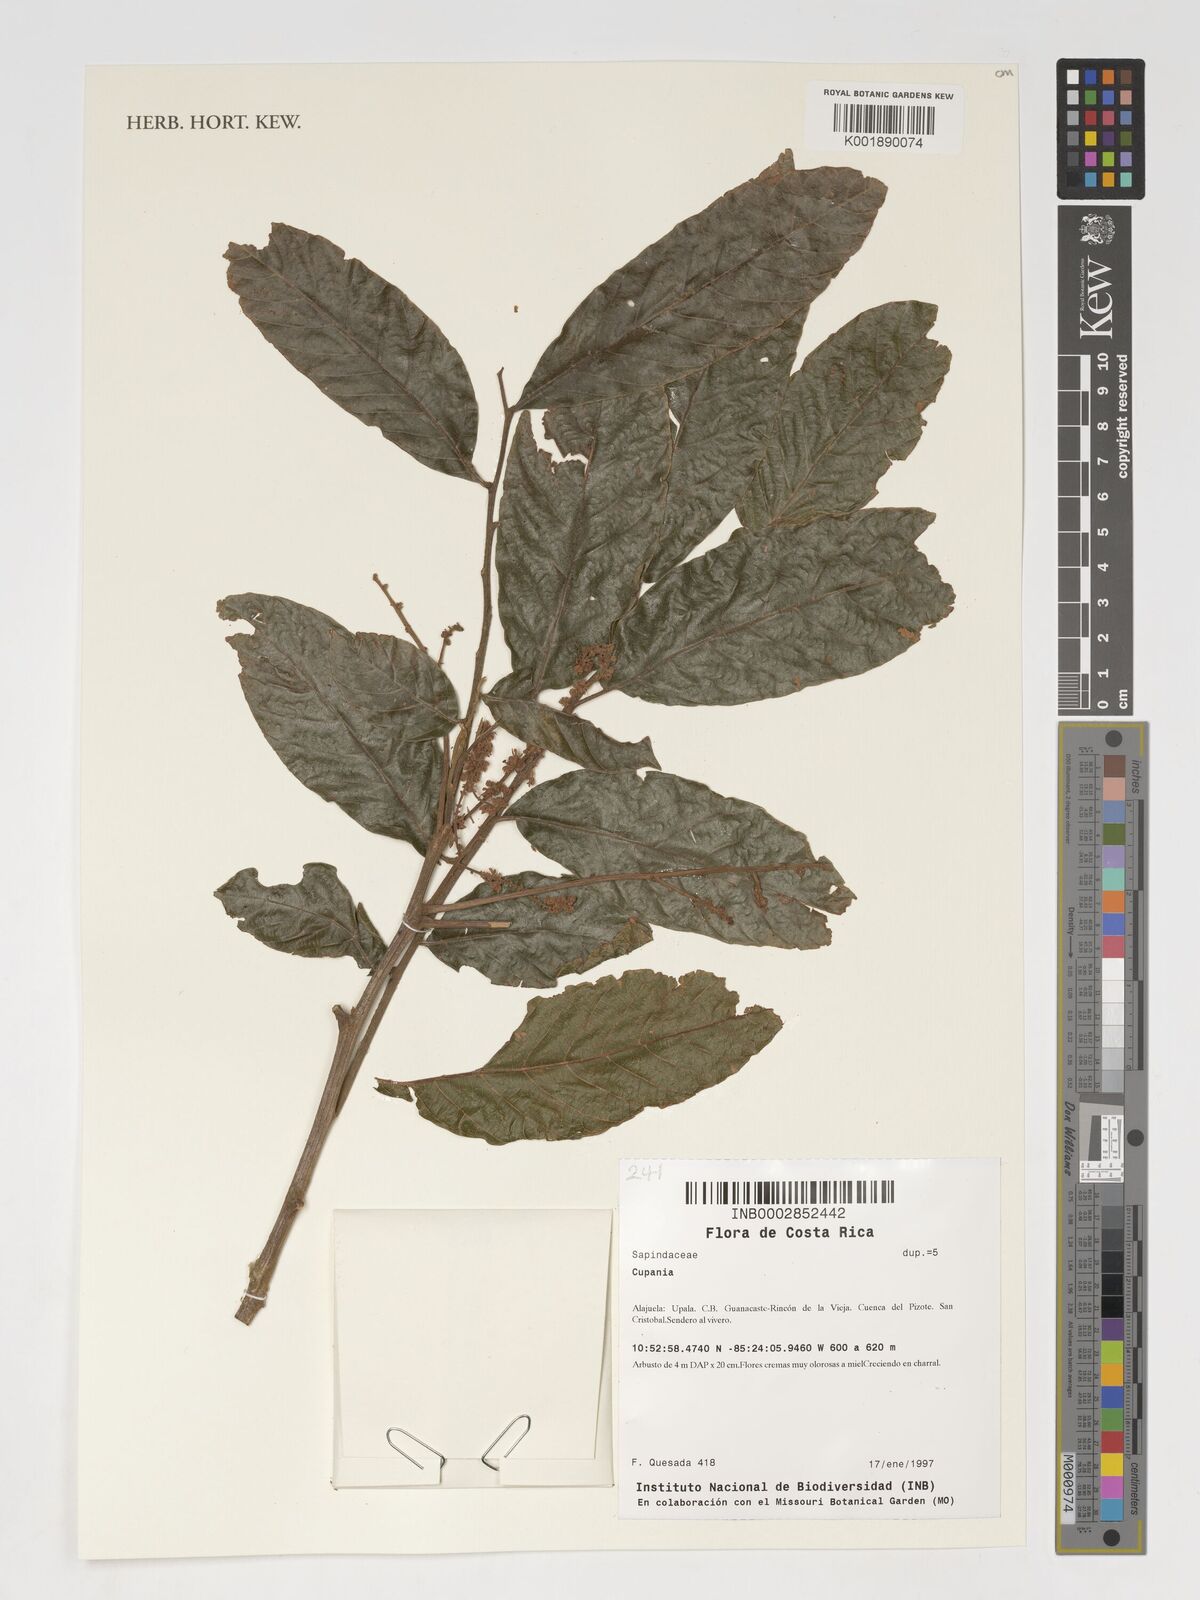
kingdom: Plantae
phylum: Tracheophyta
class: Magnoliopsida
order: Sapindales
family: Sapindaceae
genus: Cupania
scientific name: Cupania
